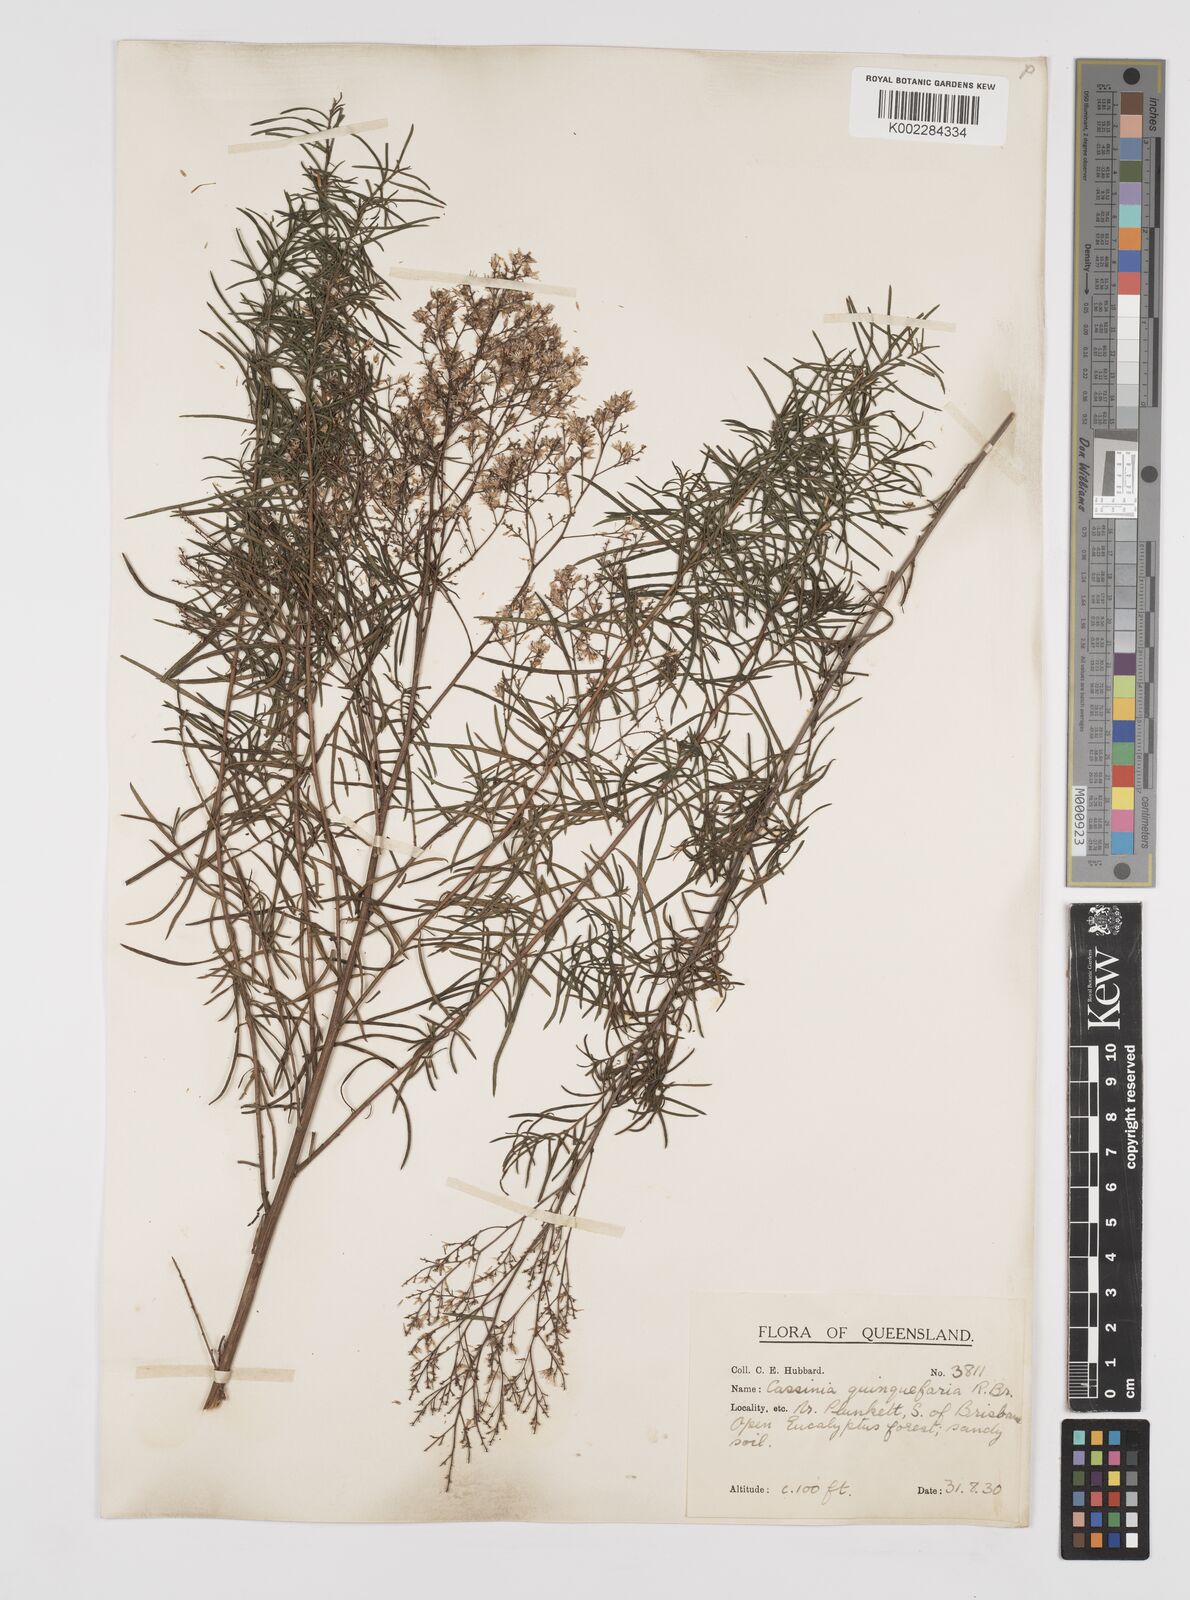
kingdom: Plantae
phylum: Tracheophyta
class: Magnoliopsida
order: Asterales
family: Asteraceae
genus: Cassinia
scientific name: Cassinia quinquefaria
